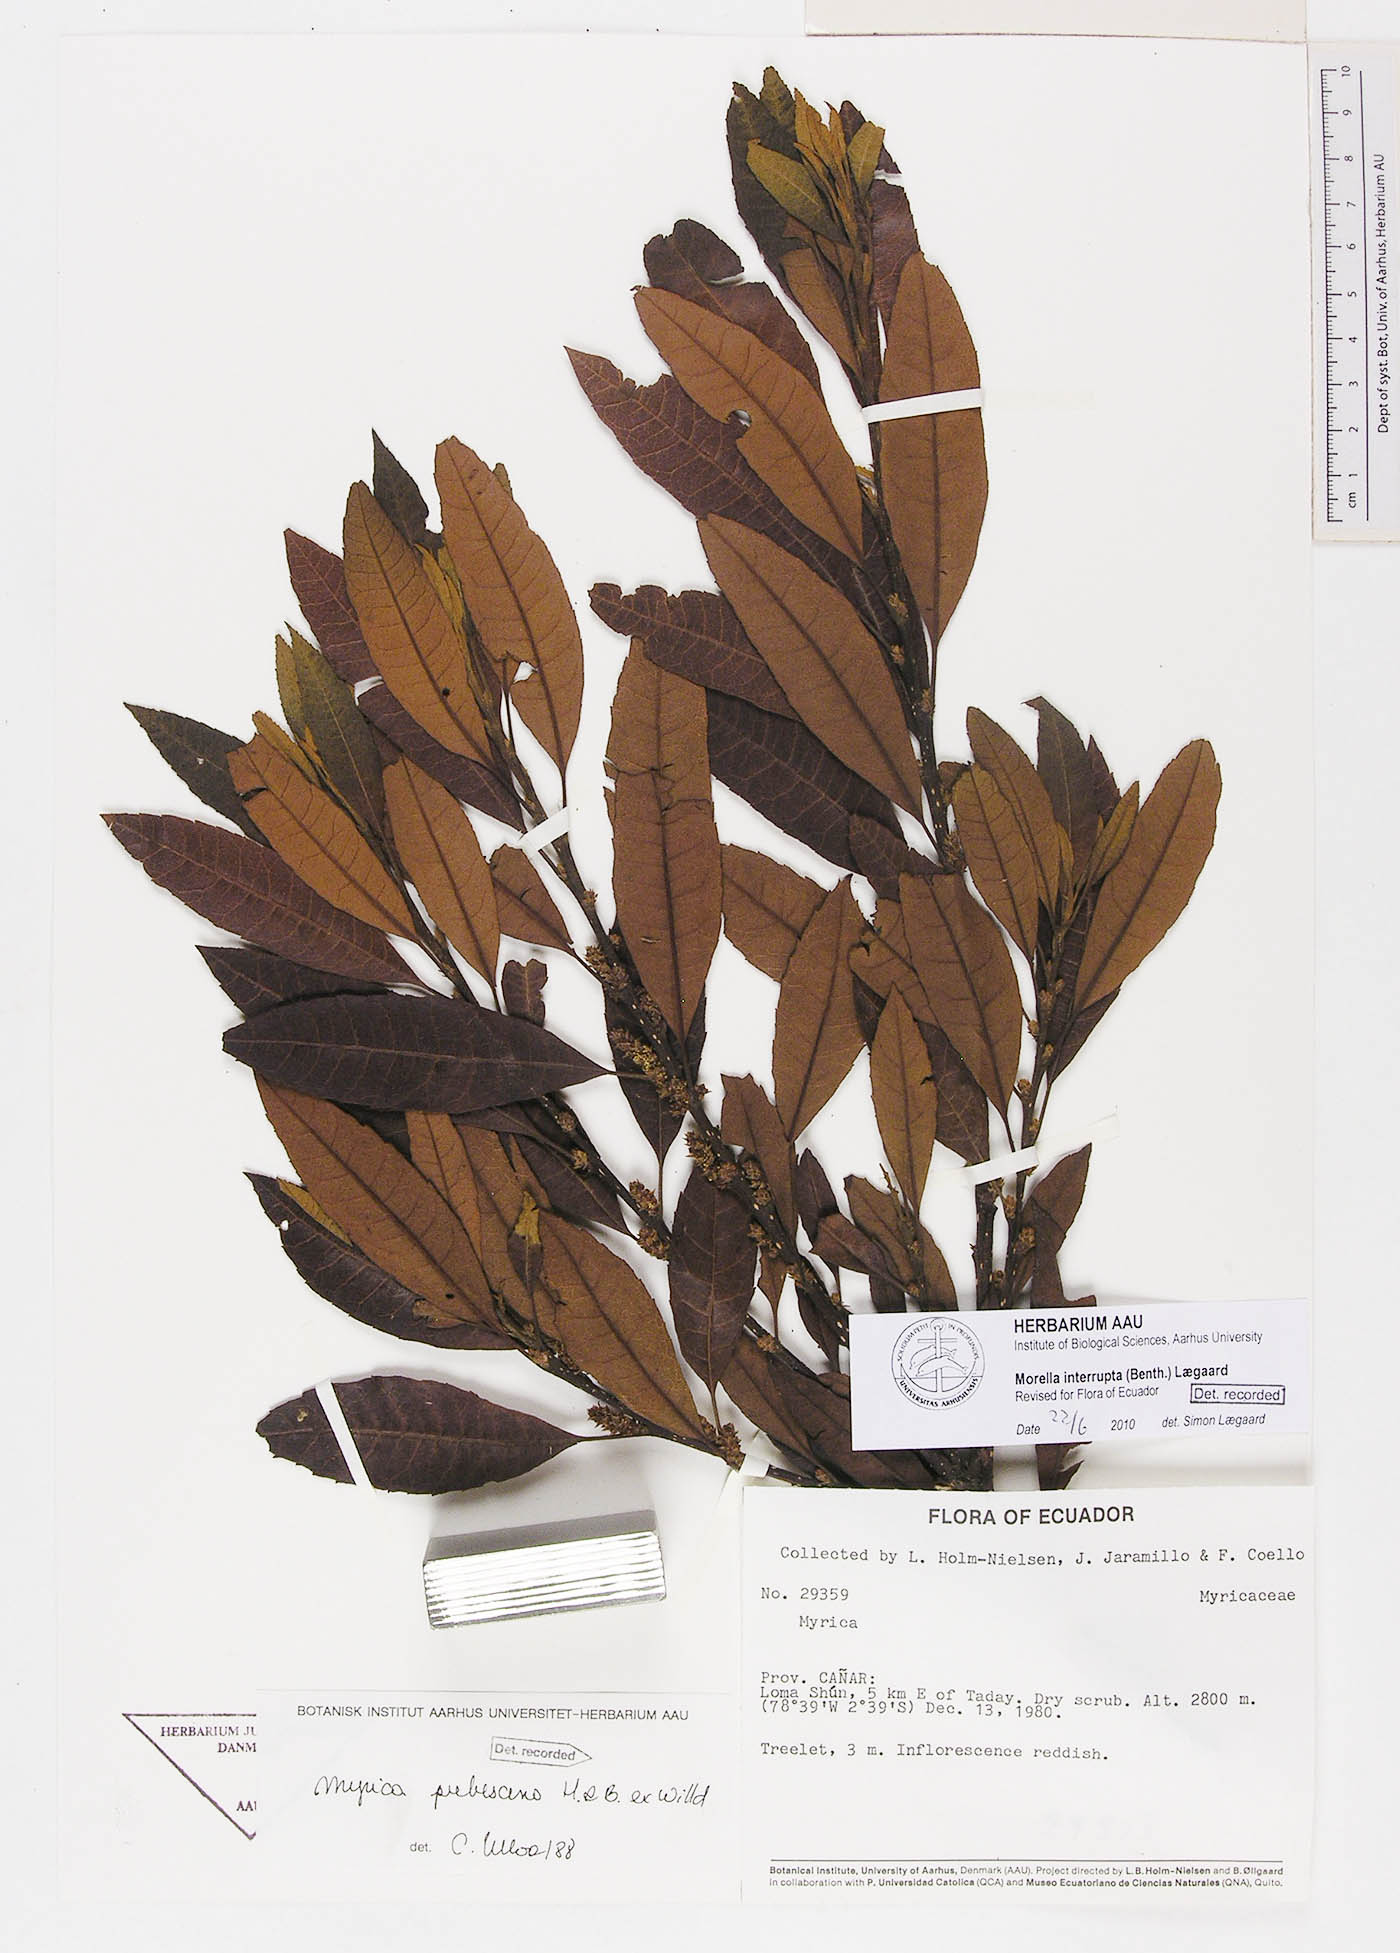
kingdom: Plantae
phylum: Tracheophyta
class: Magnoliopsida
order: Fagales
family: Myricaceae
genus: Morella
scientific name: Morella interrupta
